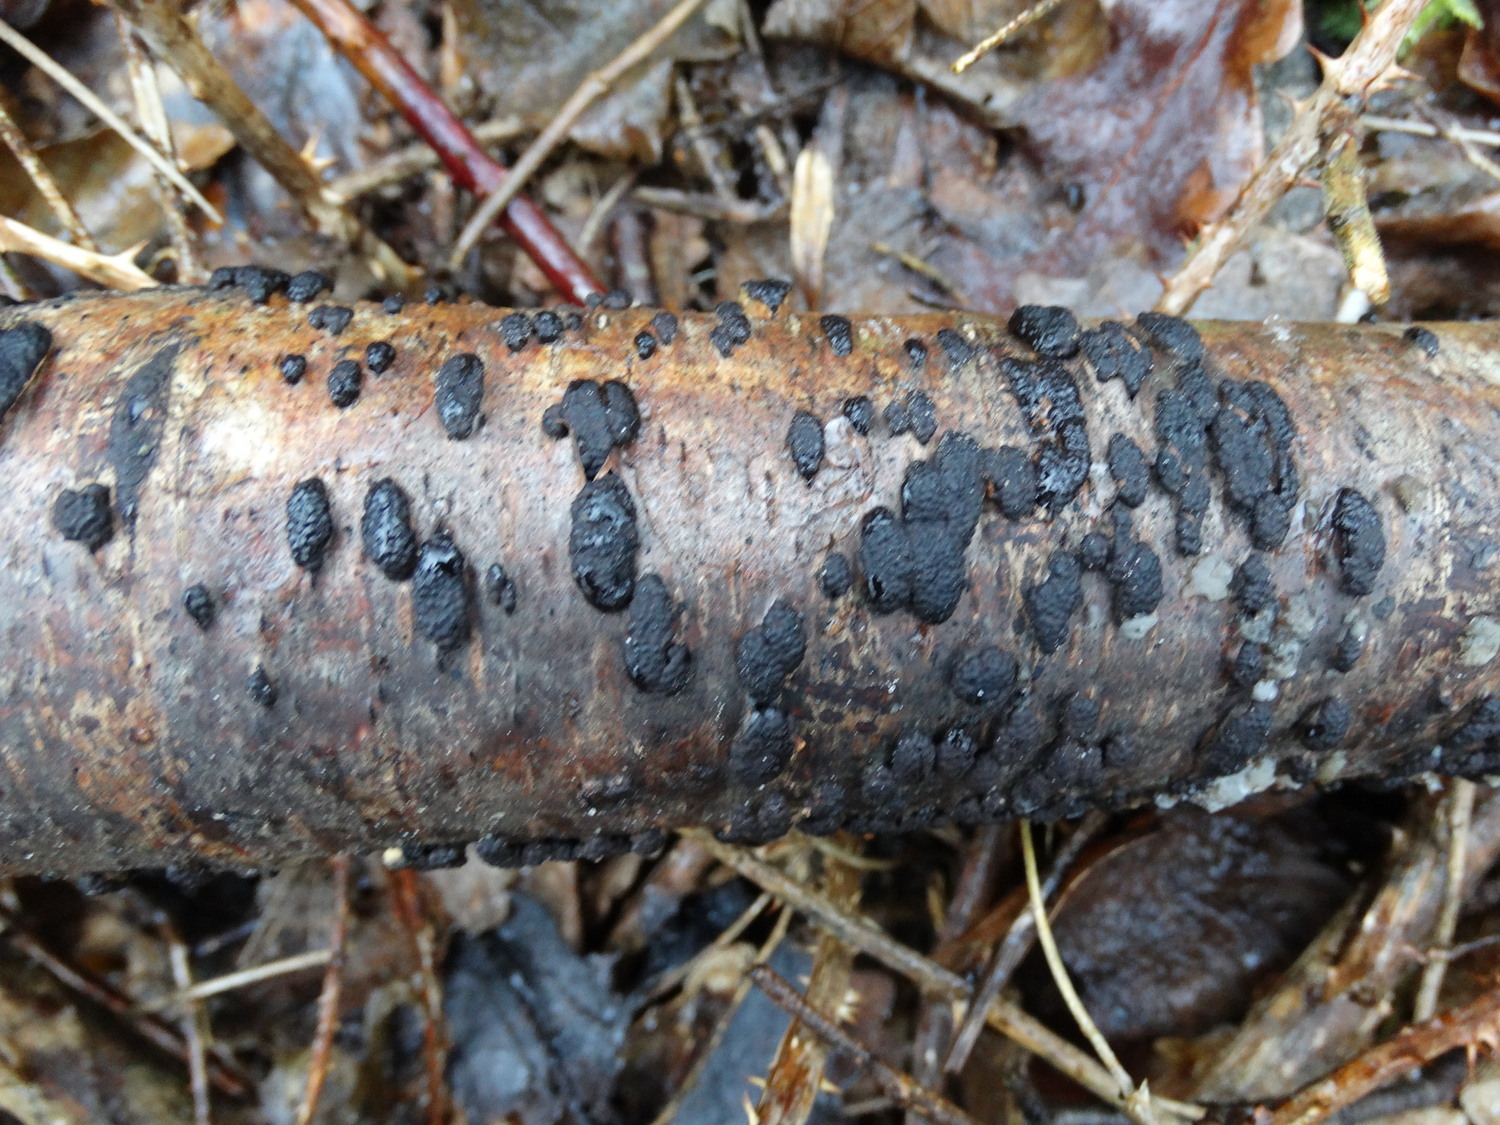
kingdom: Fungi
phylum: Ascomycota
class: Sordariomycetes
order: Xylariales
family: Hypoxylaceae
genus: Jackrogersella
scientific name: Jackrogersella multiformis
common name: foranderlig kulbær
